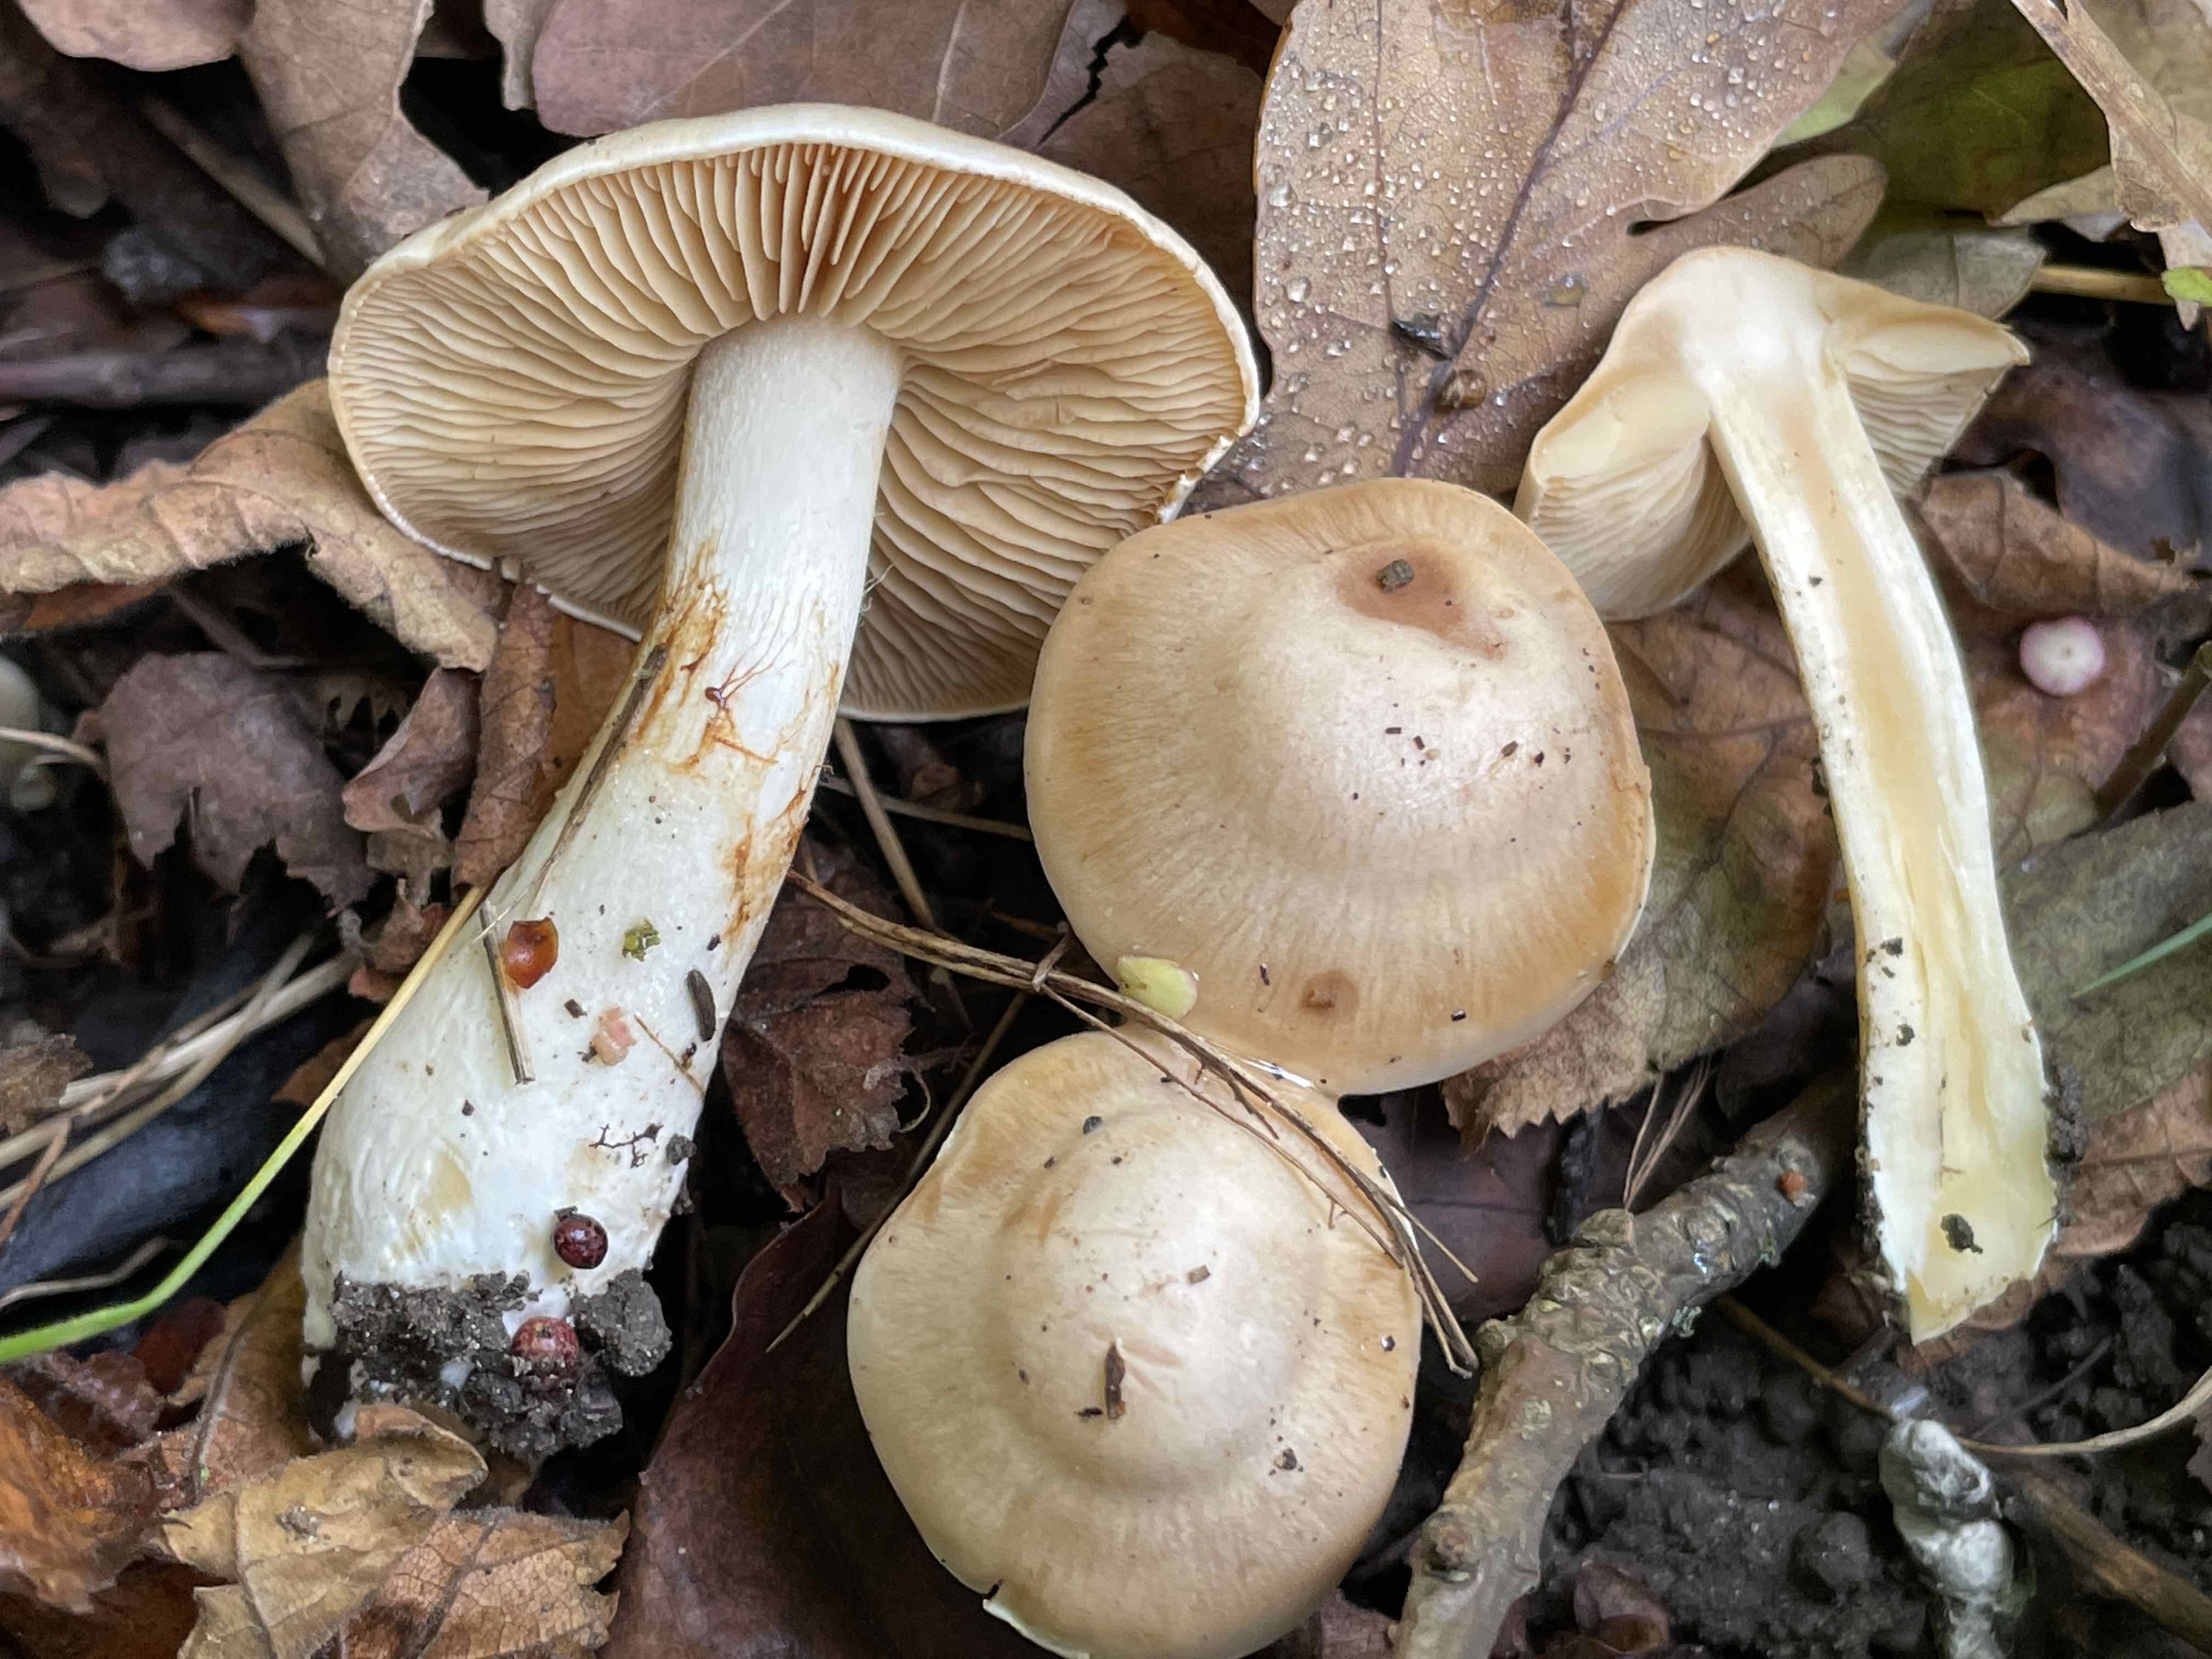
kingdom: Fungi
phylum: Basidiomycota
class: Agaricomycetes
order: Agaricales
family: Cortinariaceae
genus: Thaxterogaster
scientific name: Thaxterogaster leucoluteolus
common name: isabella slørhat
